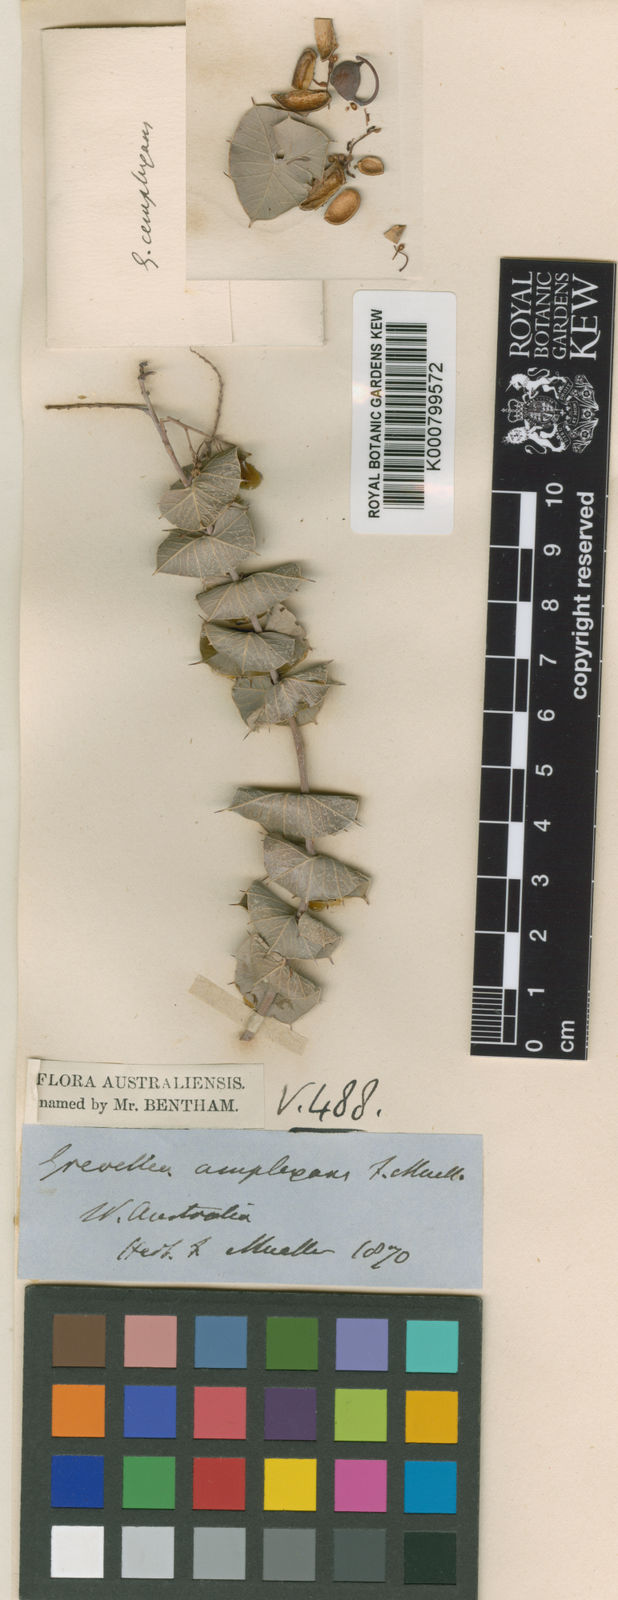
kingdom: Plantae
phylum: Tracheophyta
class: Magnoliopsida
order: Proteales
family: Proteaceae
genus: Grevillea
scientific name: Grevillea amplexans
